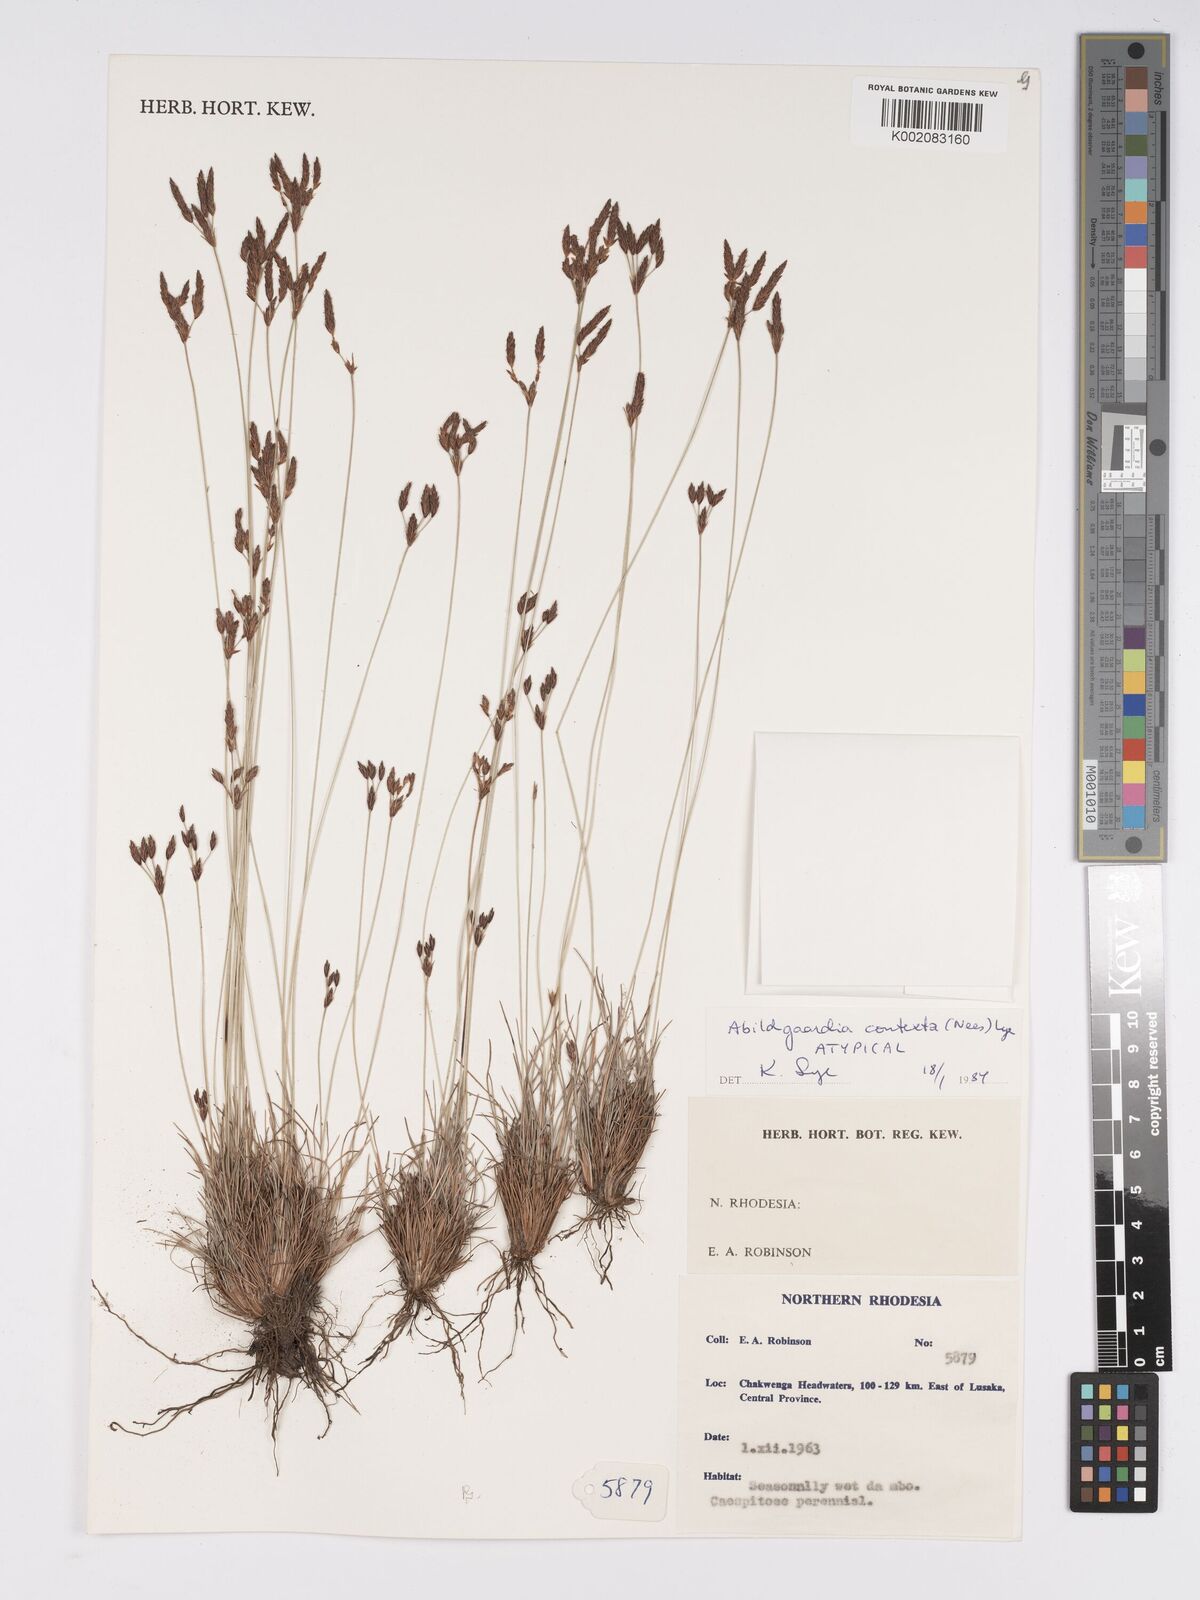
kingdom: Plantae
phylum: Tracheophyta
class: Liliopsida
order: Poales
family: Cyperaceae
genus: Bulbostylis
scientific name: Bulbostylis contexta
